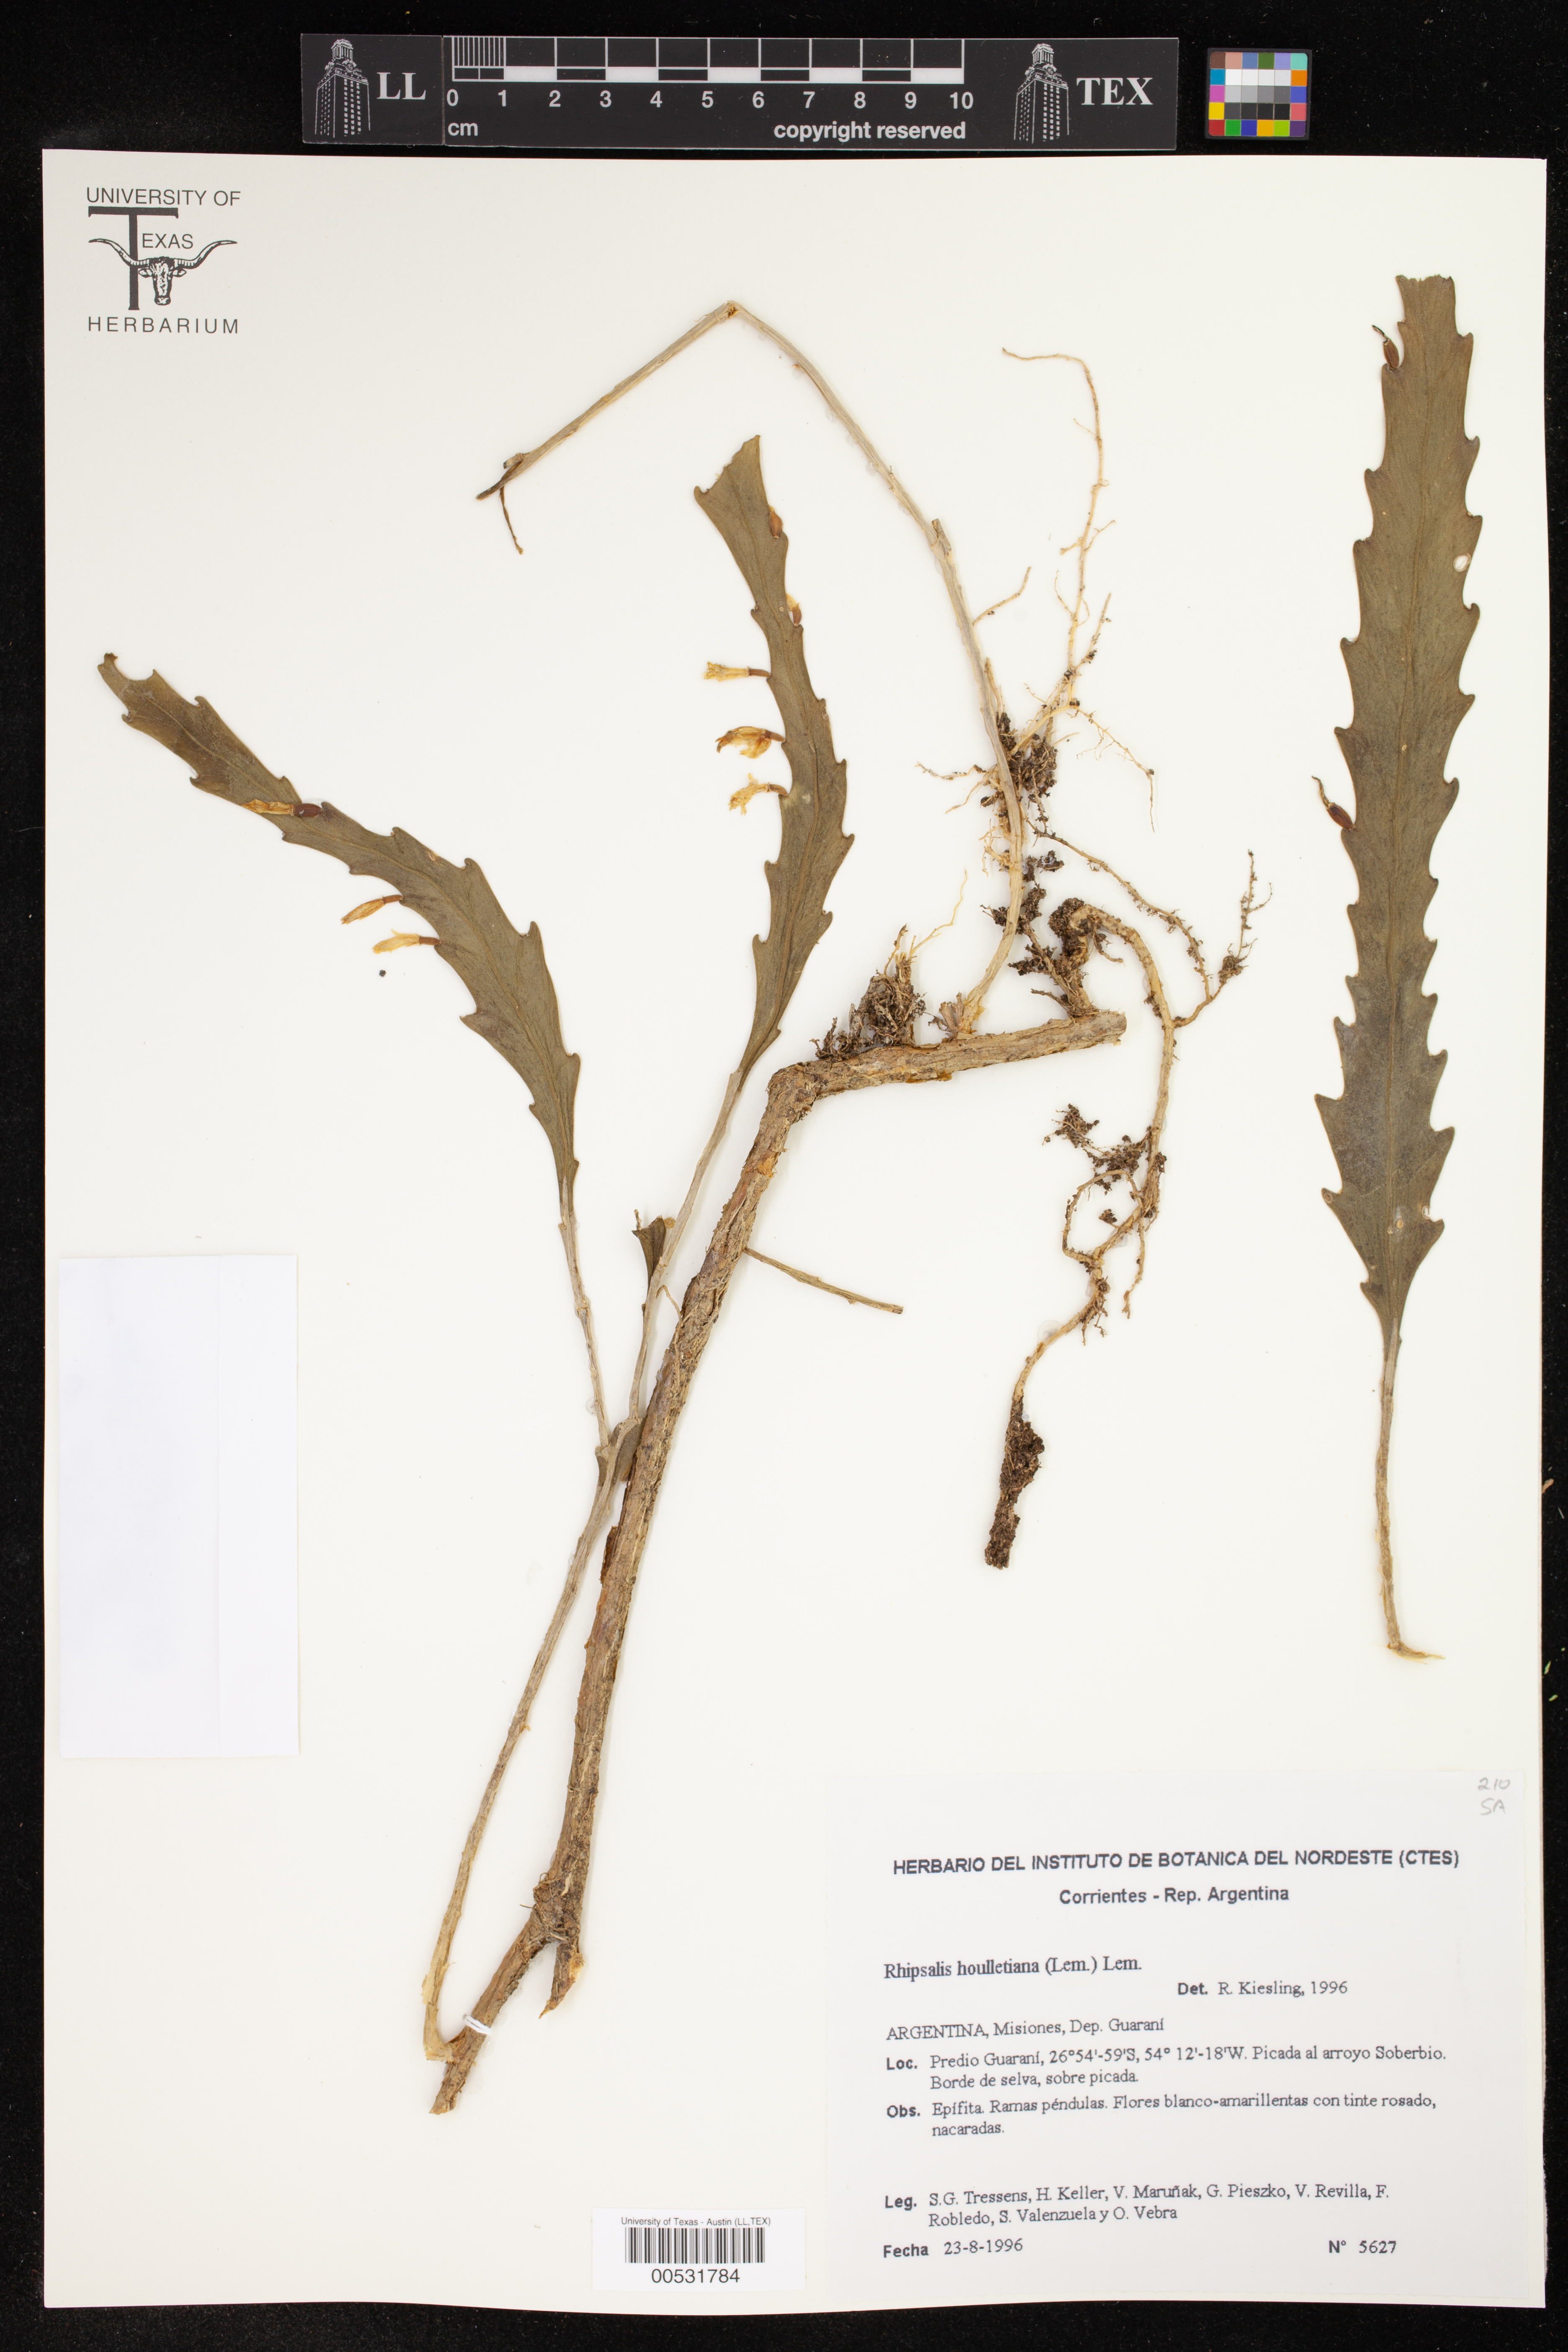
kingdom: Plantae
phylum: Tracheophyta
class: Magnoliopsida
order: Caryophyllales
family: Cactaceae
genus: Lepismium
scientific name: Lepismium houlletianum
